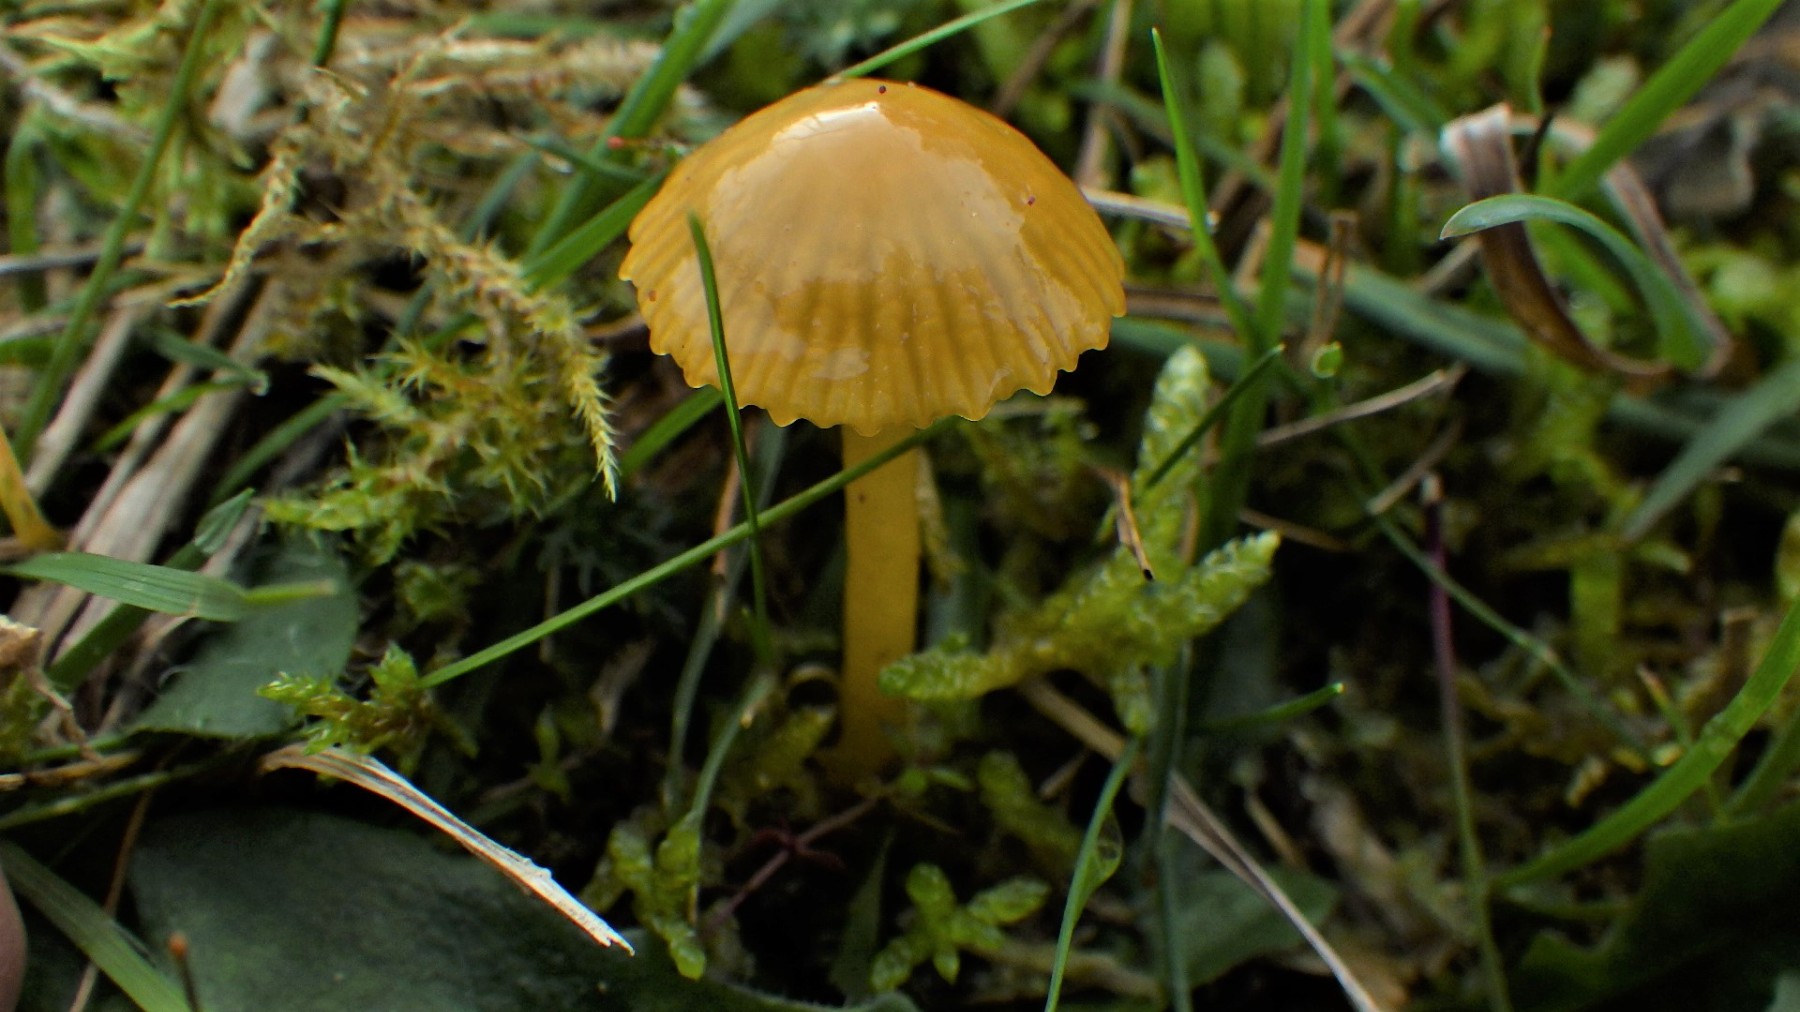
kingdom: Fungi
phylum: Basidiomycota
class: Agaricomycetes
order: Agaricales
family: Hygrophoraceae
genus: Gliophorus
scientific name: Gliophorus psittacinus
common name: papegøje-vokshat
